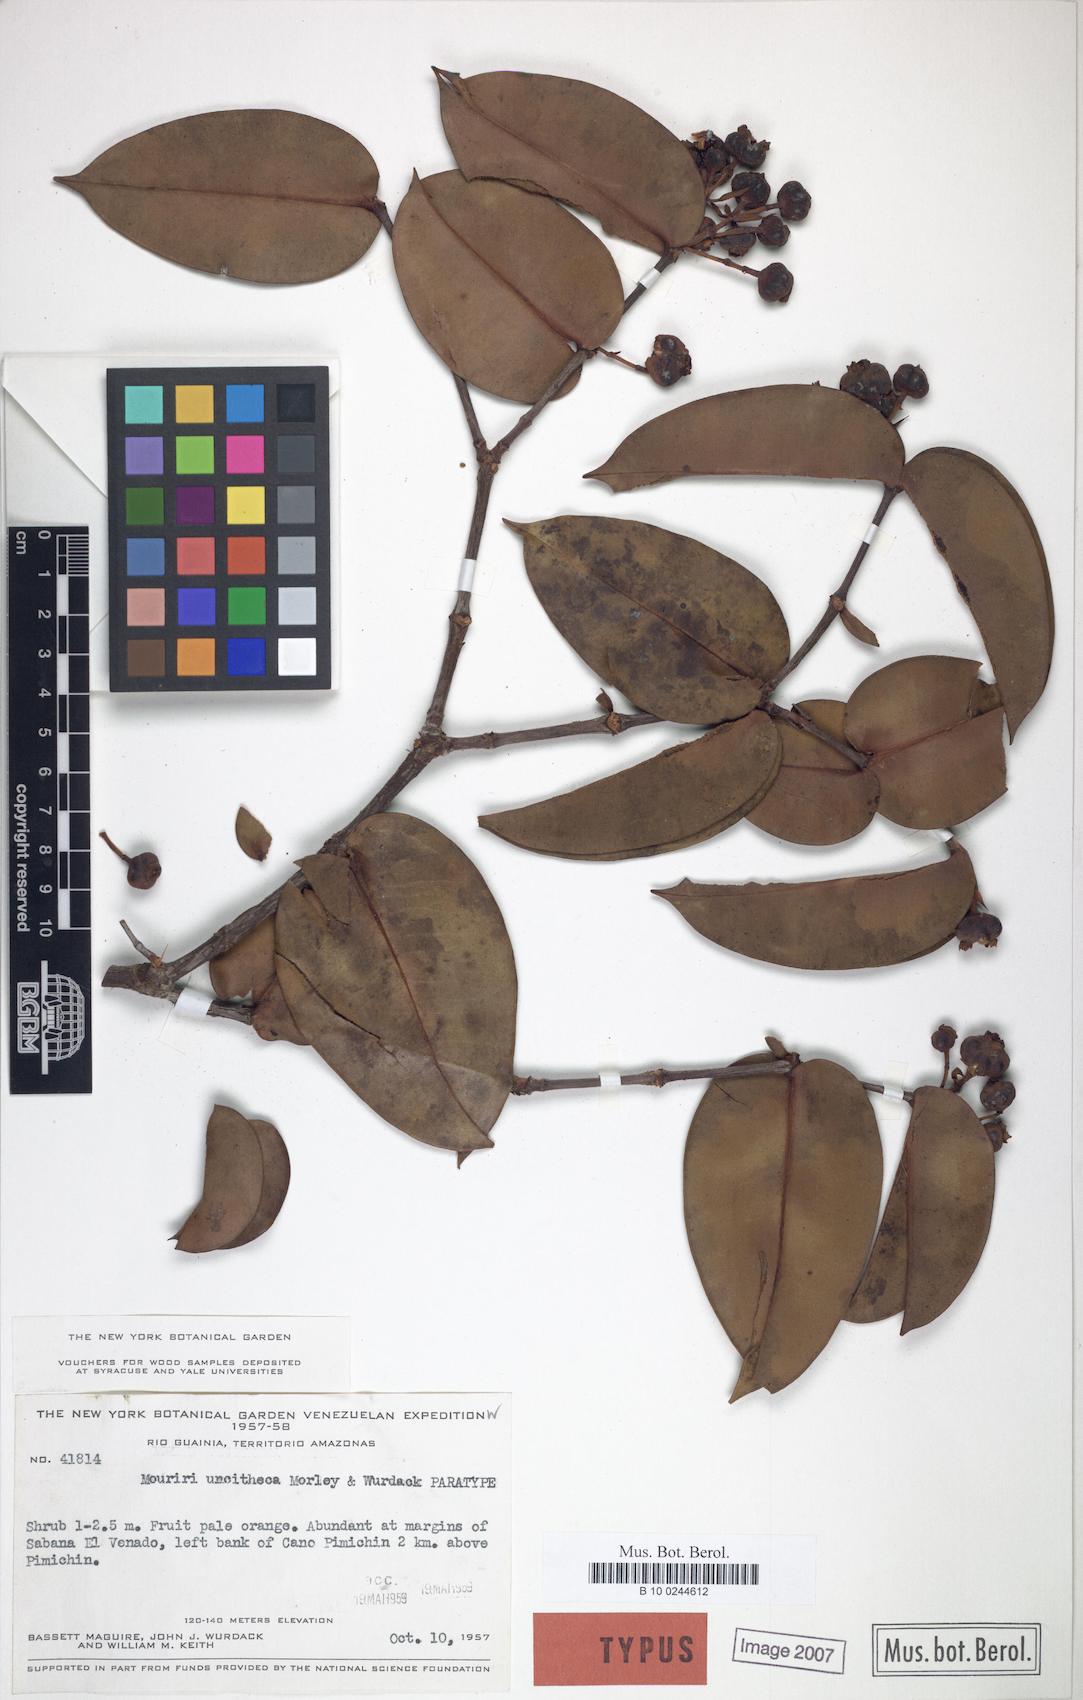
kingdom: Plantae
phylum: Tracheophyta
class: Magnoliopsida
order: Myrtales
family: Melastomataceae
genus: Mouriri
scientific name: Mouriri uncitheca
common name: Derello mouriri
